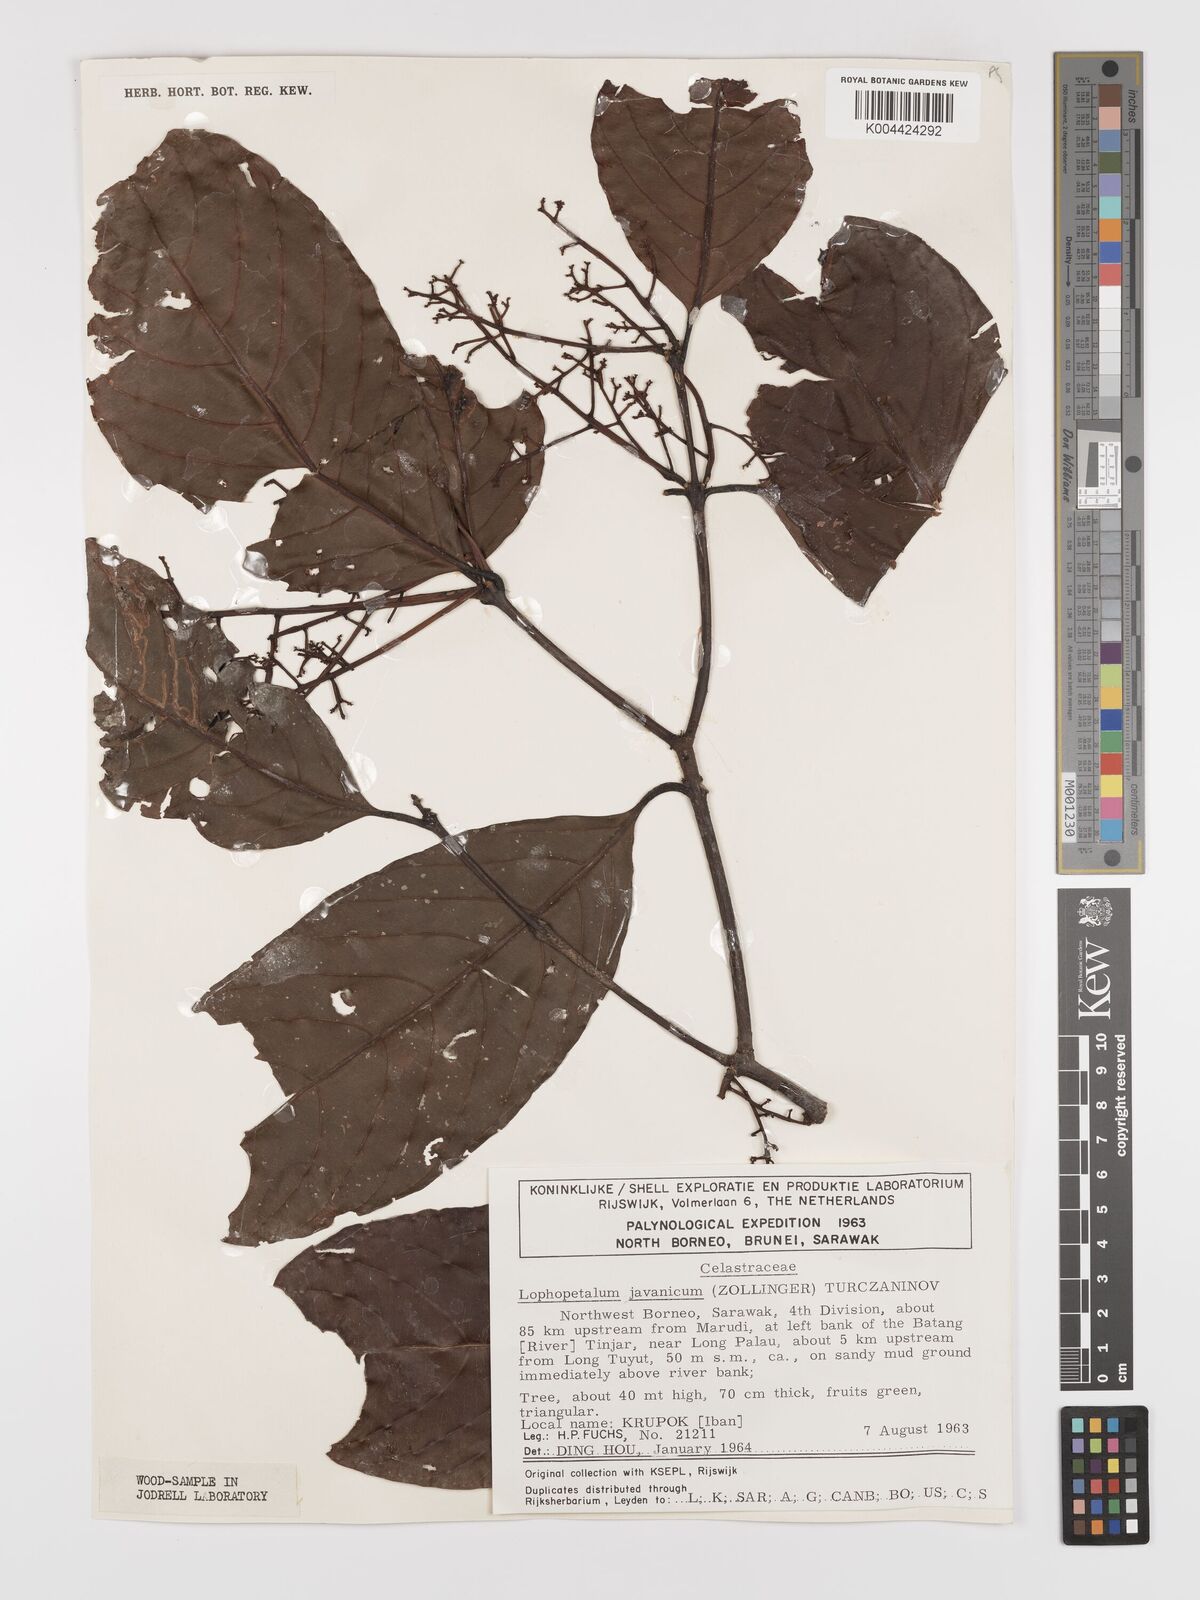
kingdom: Plantae
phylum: Tracheophyta
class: Magnoliopsida
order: Celastrales
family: Celastraceae
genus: Lophopetalum
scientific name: Lophopetalum javanicum
